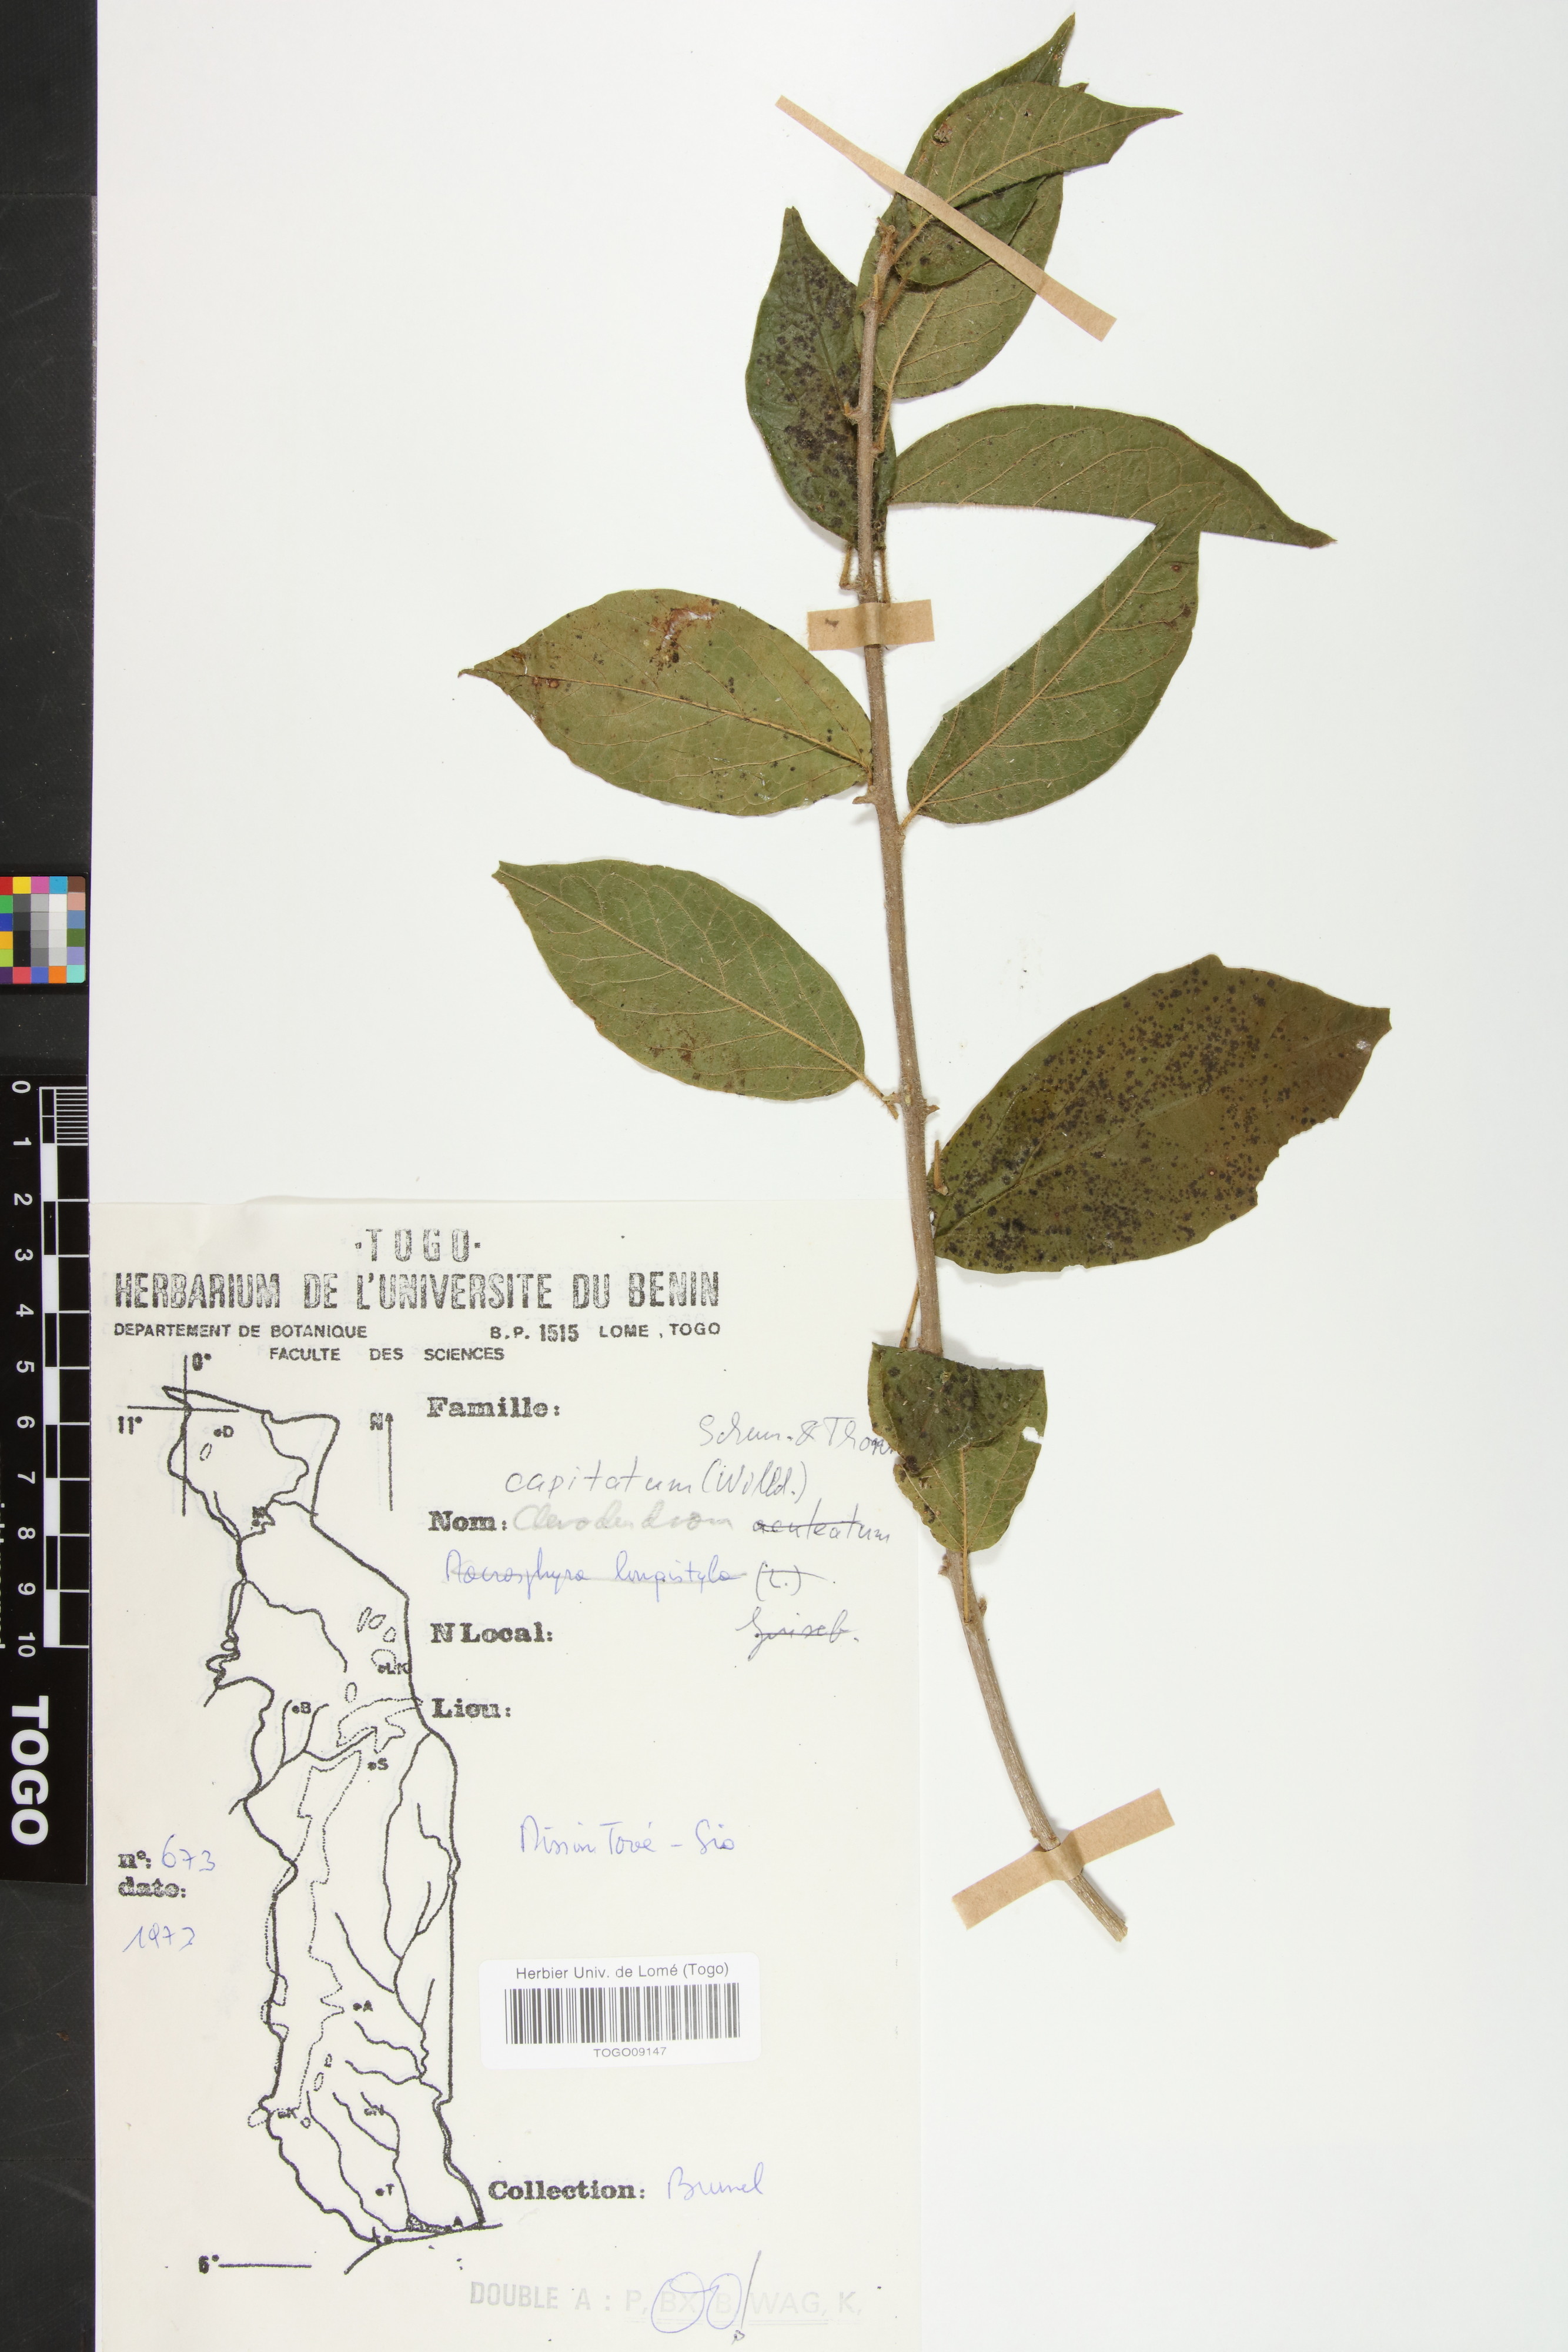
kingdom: Plantae
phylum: Tracheophyta
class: Magnoliopsida
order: Lamiales
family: Lamiaceae
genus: Clerodendrum
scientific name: Clerodendrum capitatum
